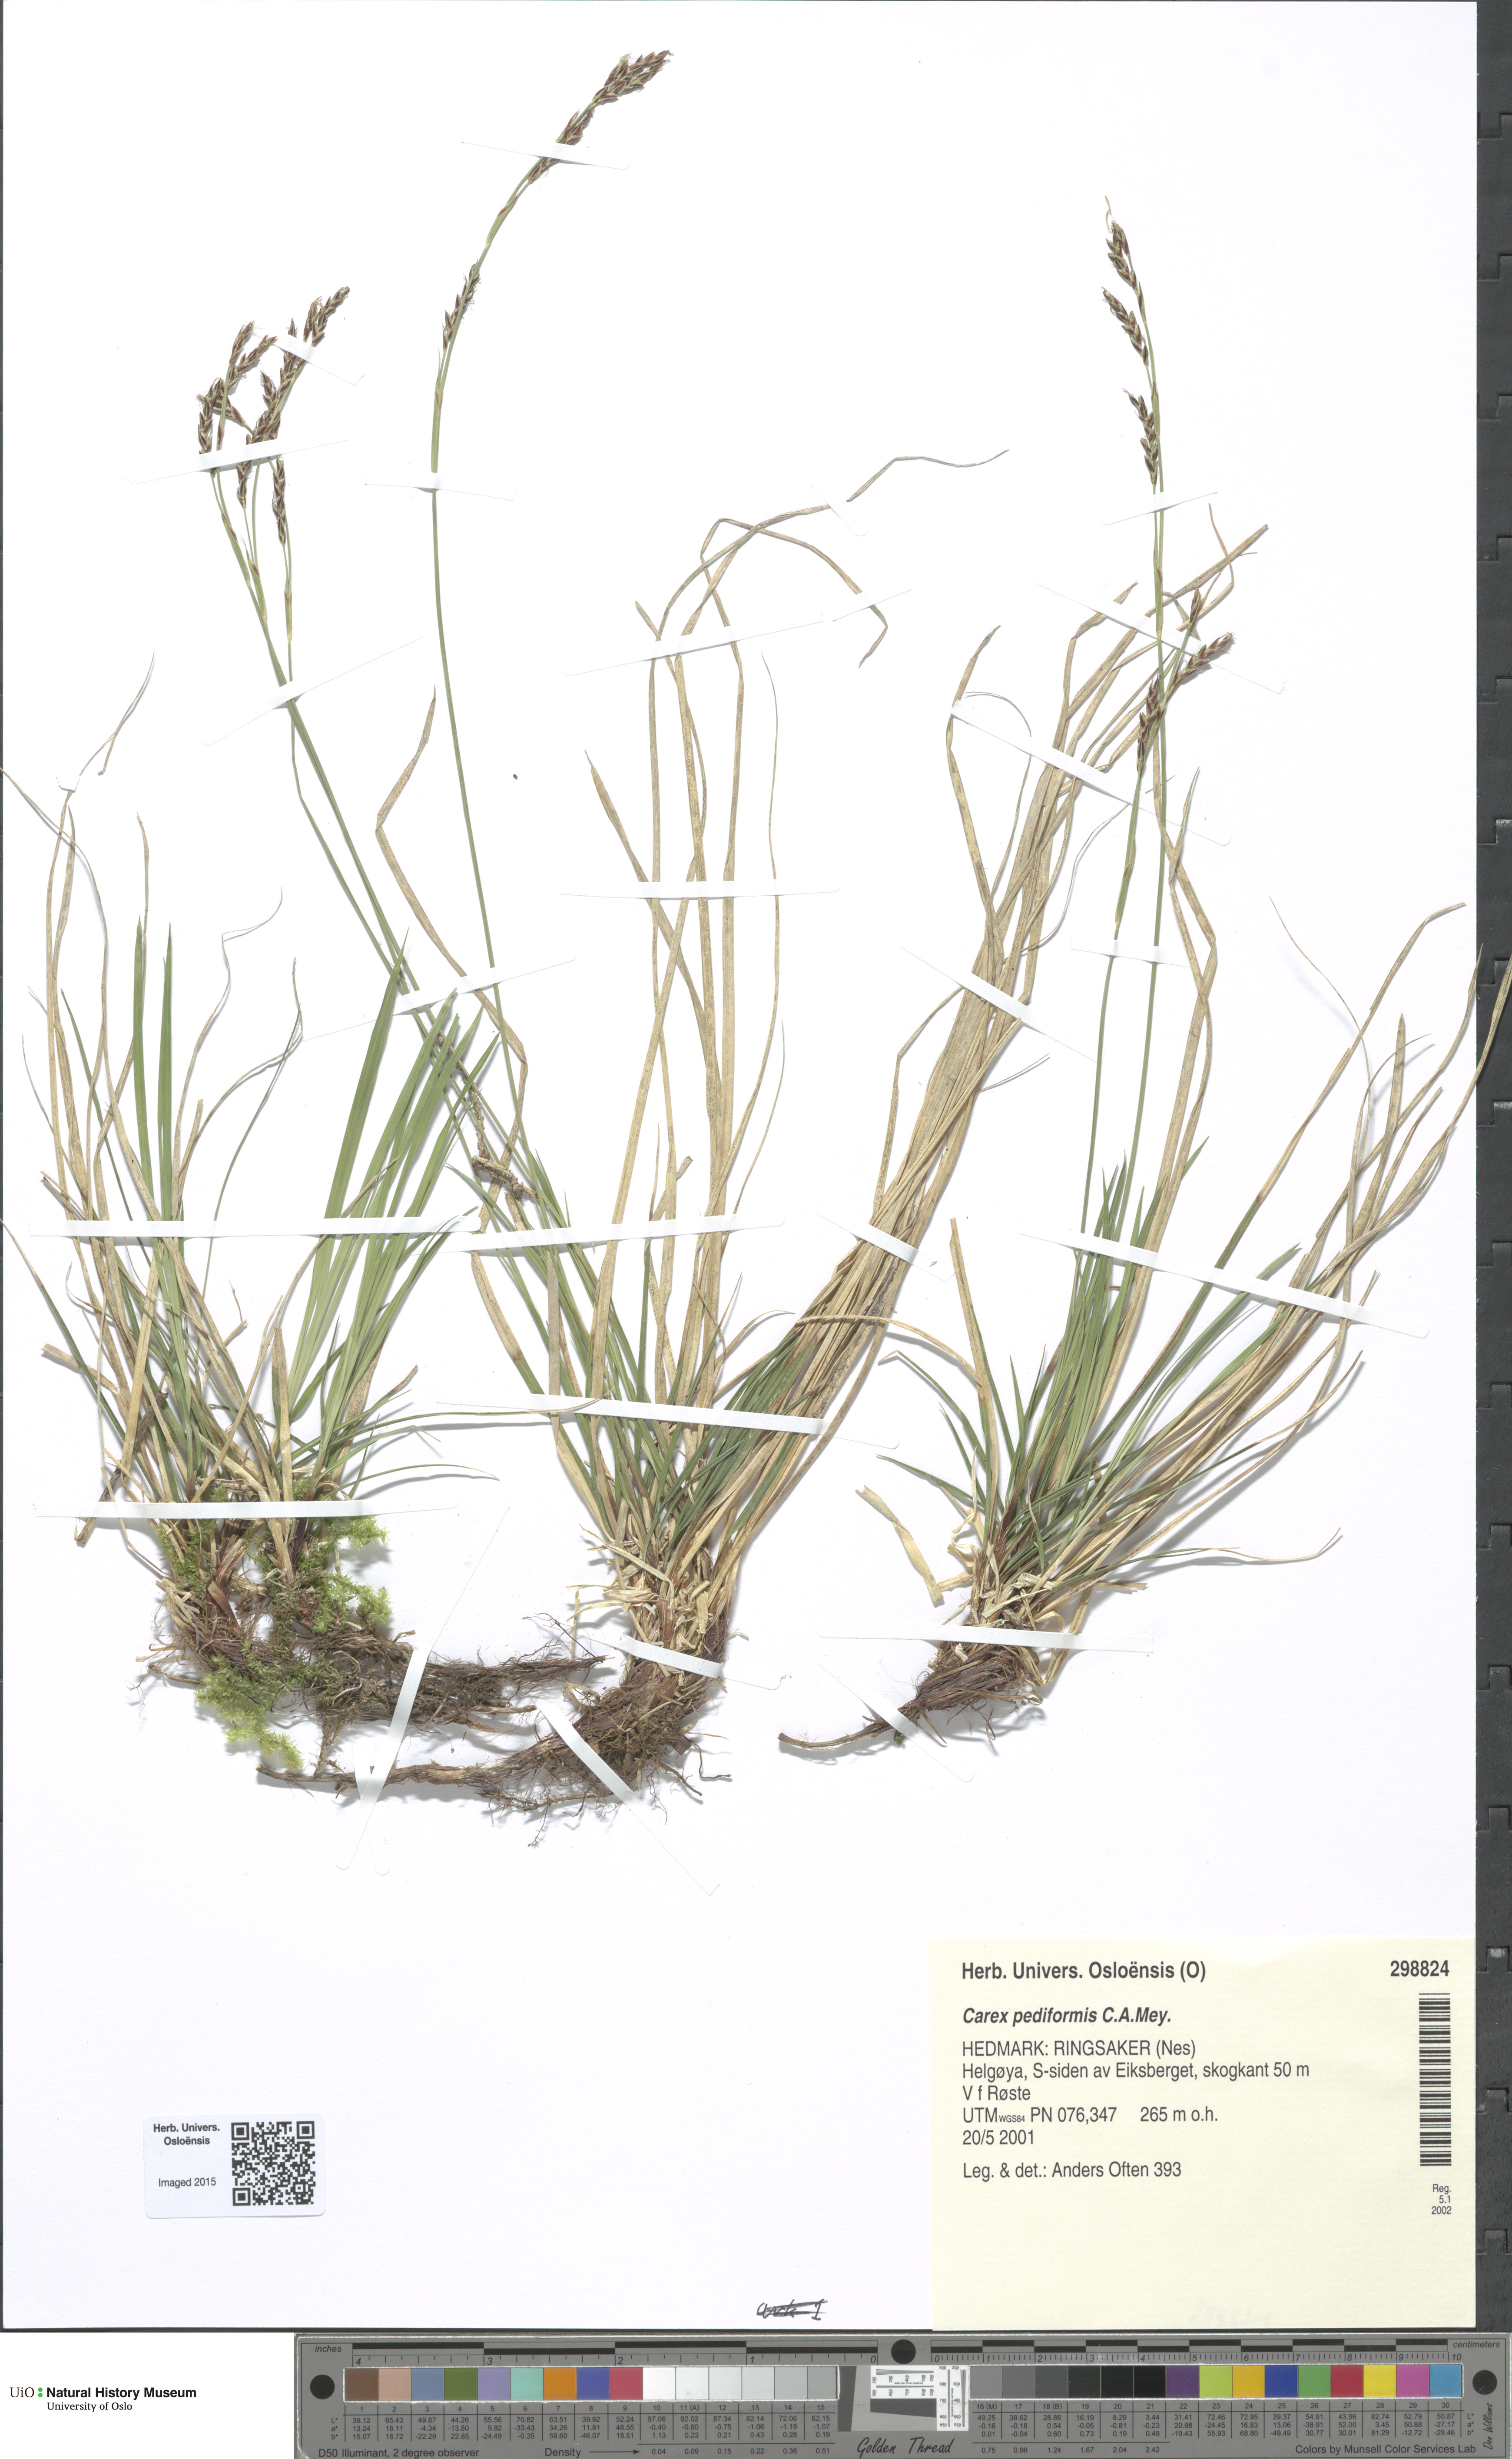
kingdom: Plantae
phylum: Tracheophyta
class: Liliopsida
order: Poales
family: Cyperaceae
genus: Carex
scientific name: Carex rhizina
